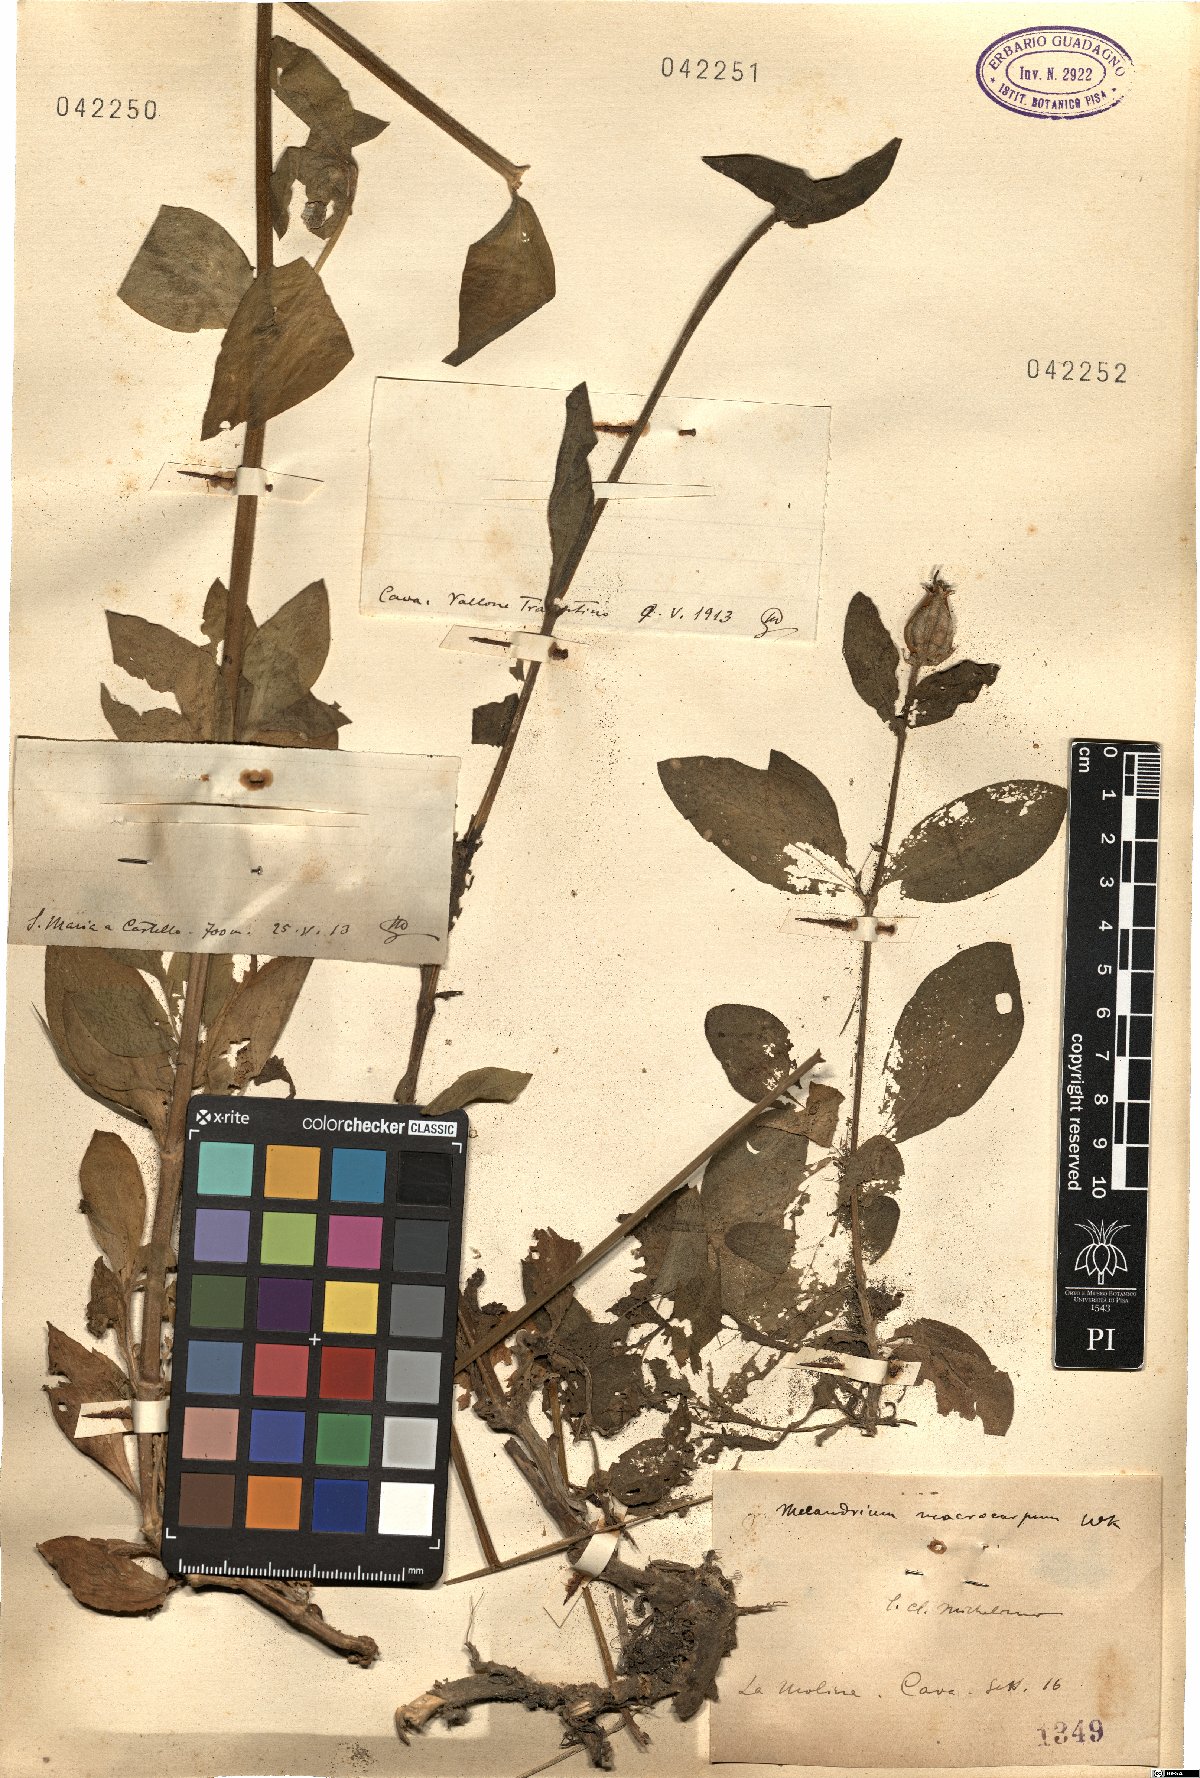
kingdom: Plantae
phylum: Tracheophyta
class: Magnoliopsida
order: Caryophyllales
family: Caryophyllaceae
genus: Silene
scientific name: Silene
